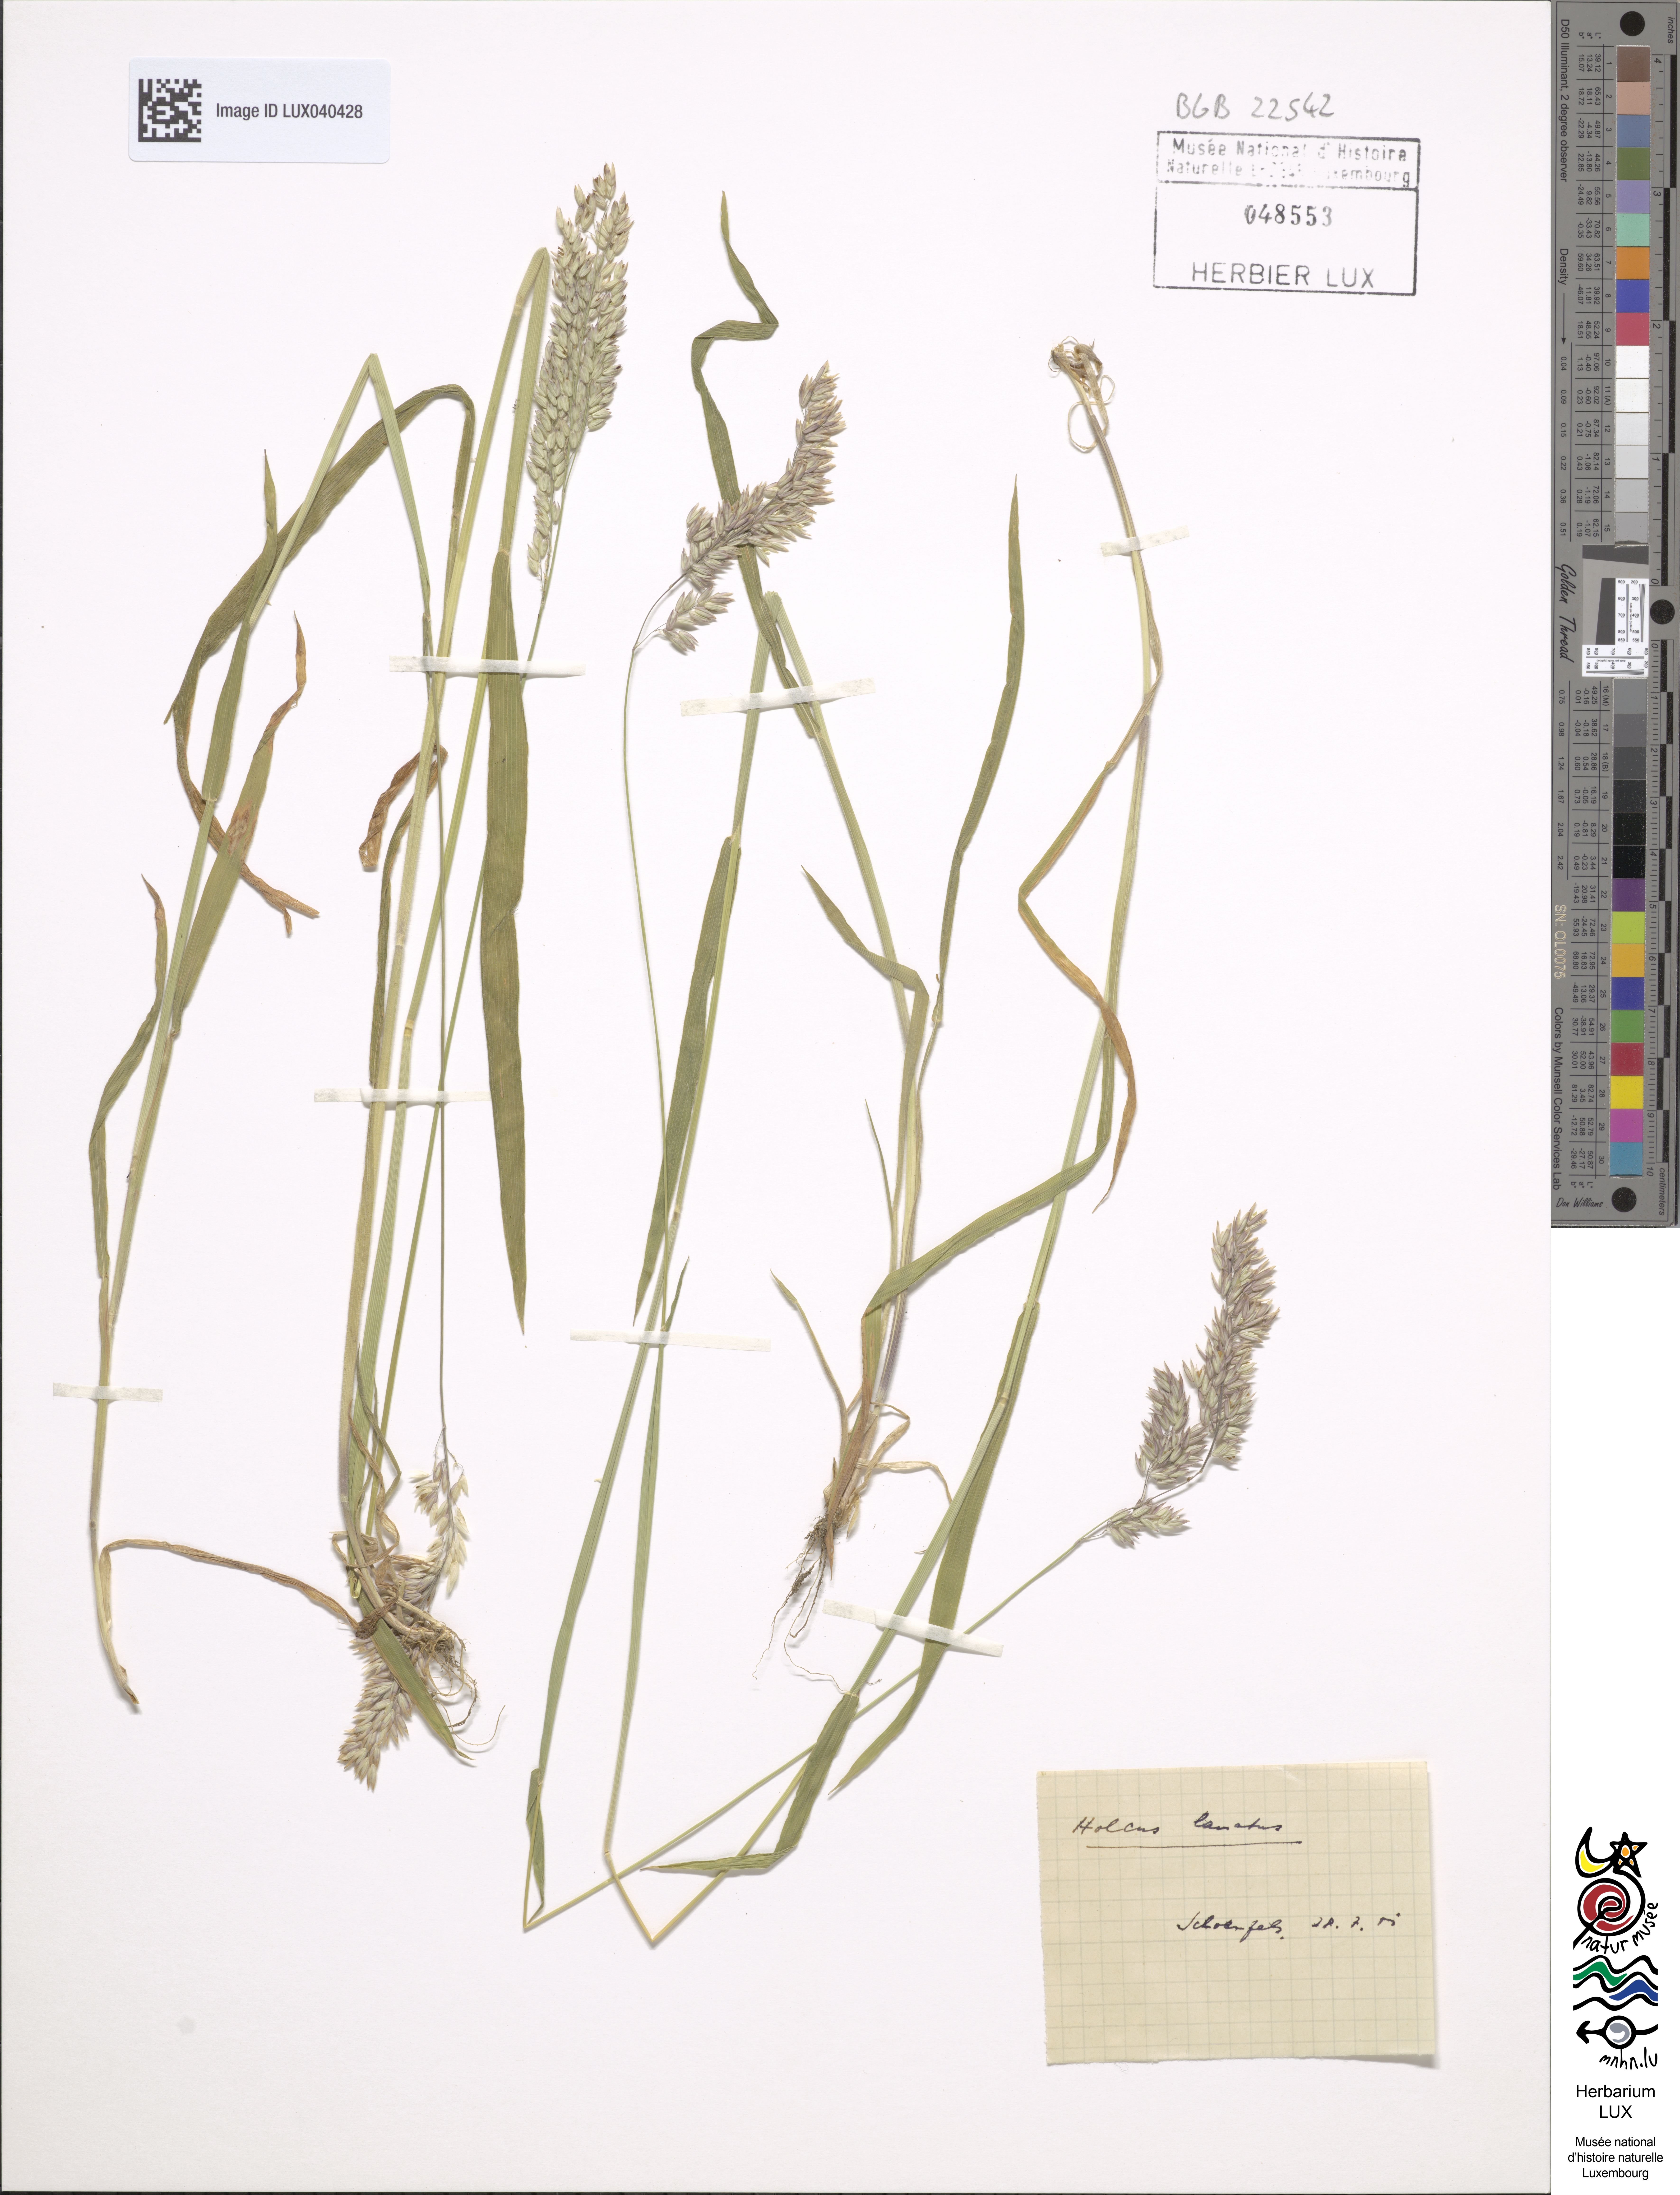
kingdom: Plantae
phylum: Tracheophyta
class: Liliopsida
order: Poales
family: Poaceae
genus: Holcus
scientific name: Holcus lanatus
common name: Yorkshire-fog
